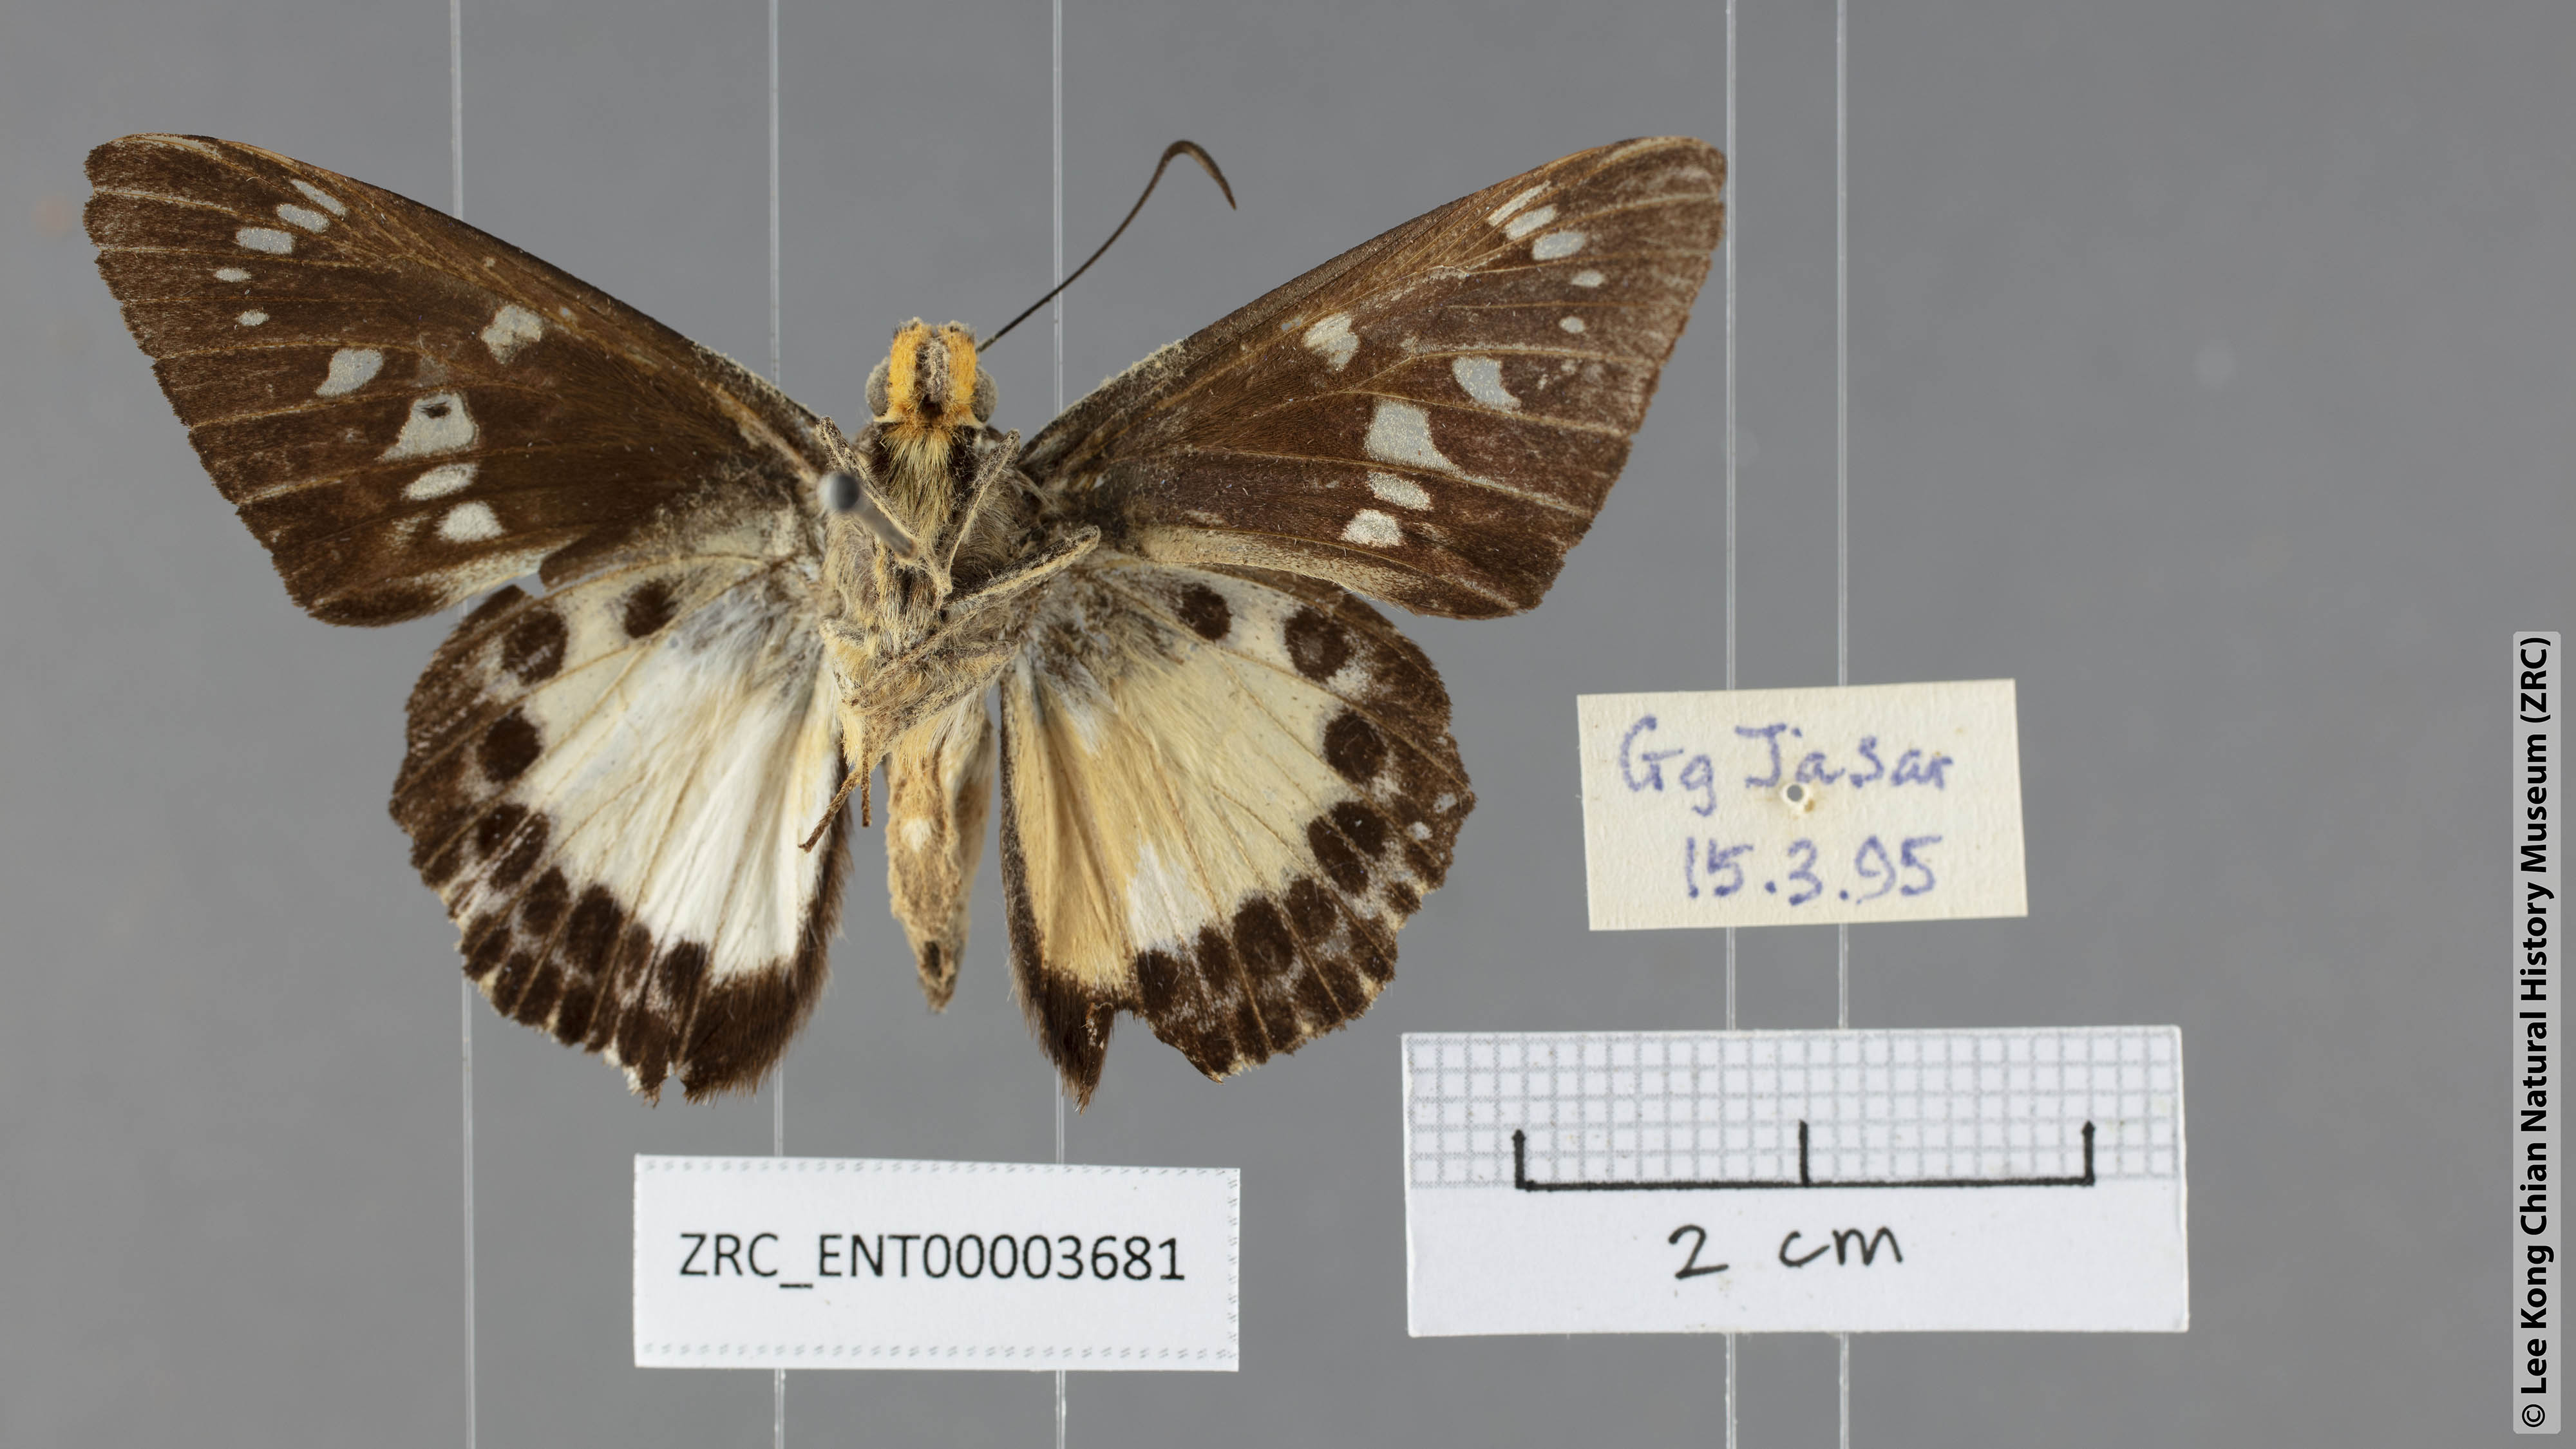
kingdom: Animalia
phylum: Arthropoda
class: Insecta
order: Lepidoptera
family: Hesperiidae
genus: Satarupa
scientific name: Satarupa gopala
